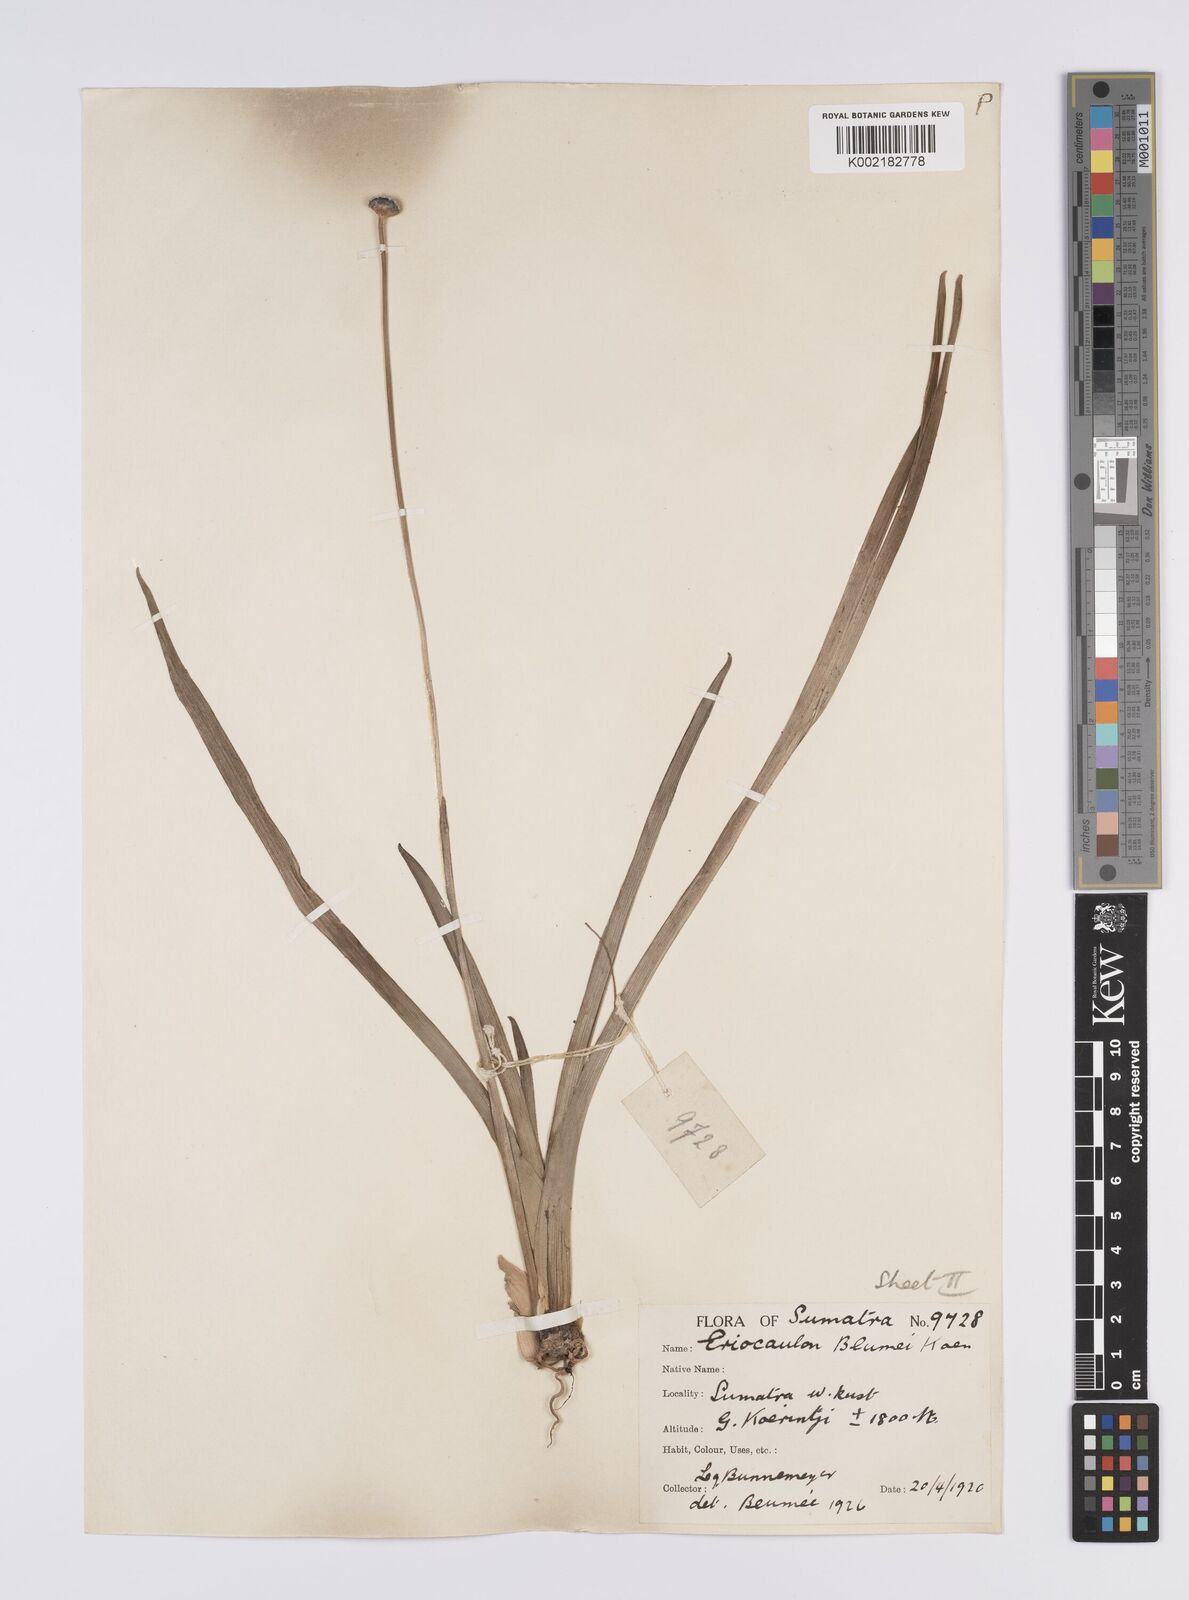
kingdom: Plantae
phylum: Tracheophyta
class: Liliopsida
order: Poales
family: Eriocaulaceae
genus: Eriocaulon
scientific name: Eriocaulon brownianum
